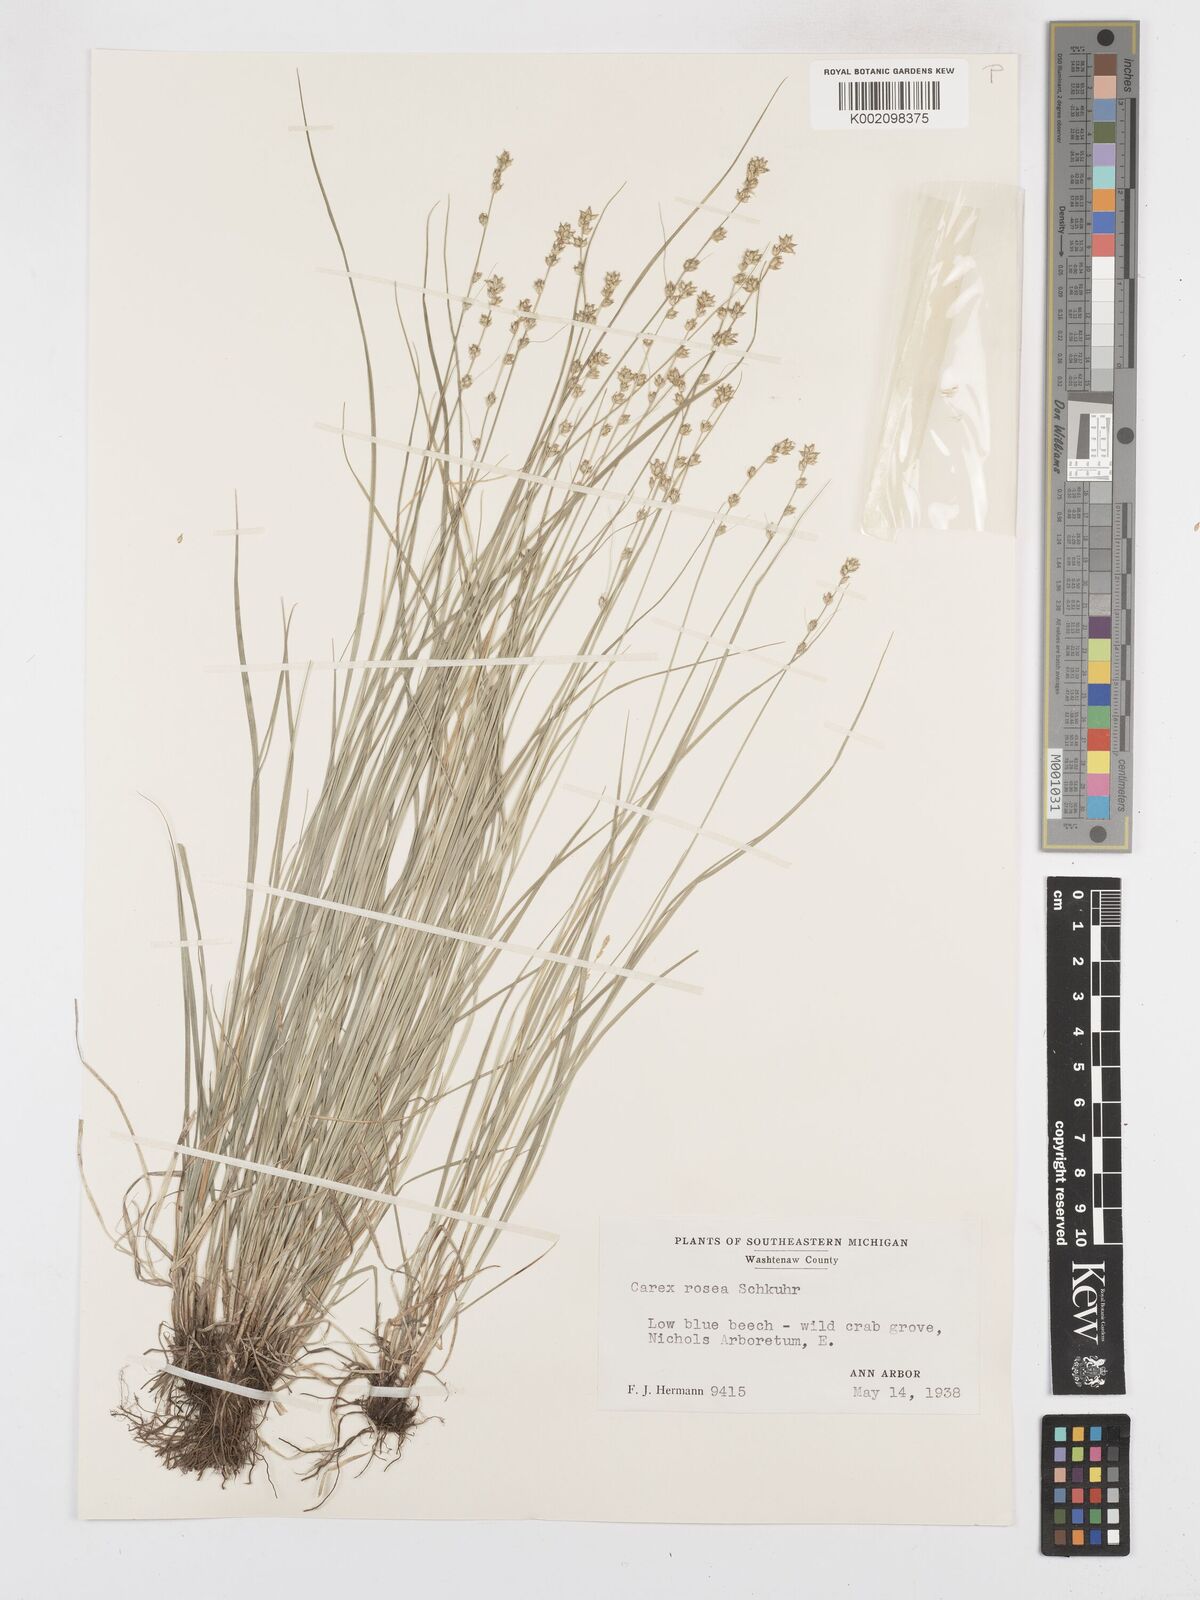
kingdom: Plantae
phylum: Tracheophyta
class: Liliopsida
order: Poales
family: Cyperaceae
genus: Carex
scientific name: Carex rosea
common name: Curly-styled wood sedge
